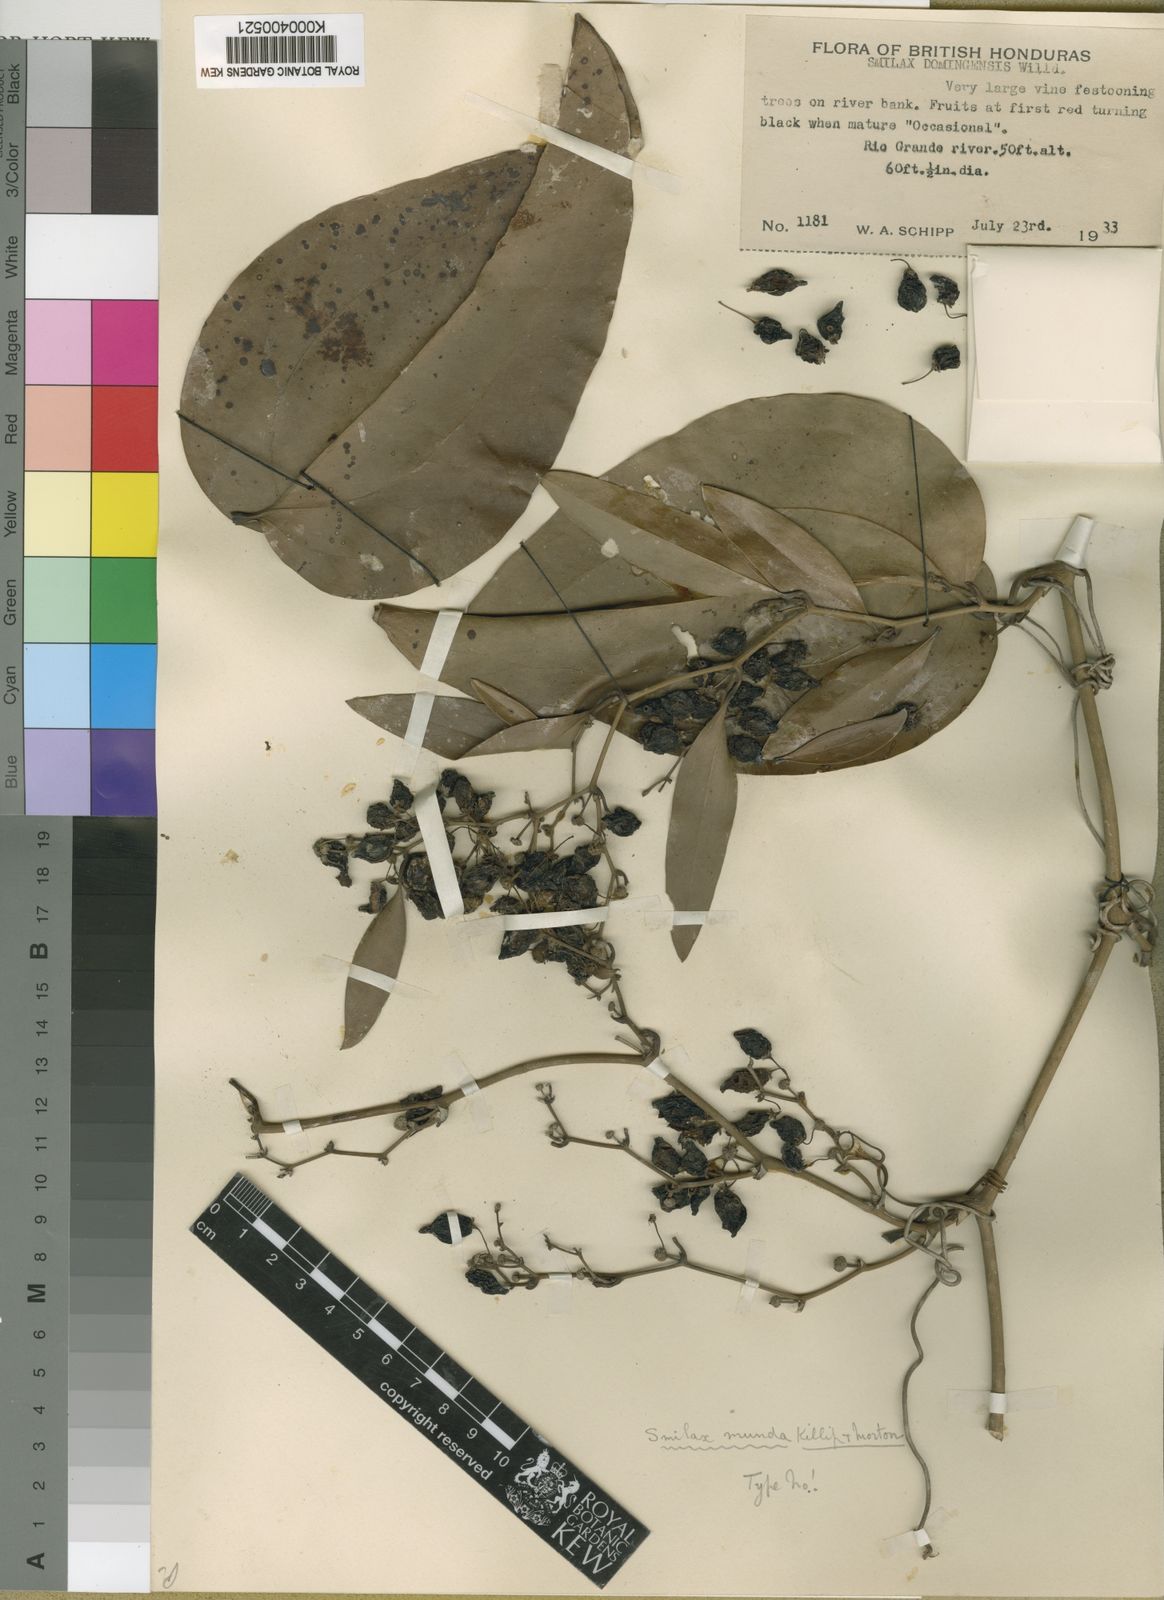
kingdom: Plantae
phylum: Tracheophyta
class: Liliopsida
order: Liliales
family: Smilacaceae
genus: Smilax
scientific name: Smilax spinosa
